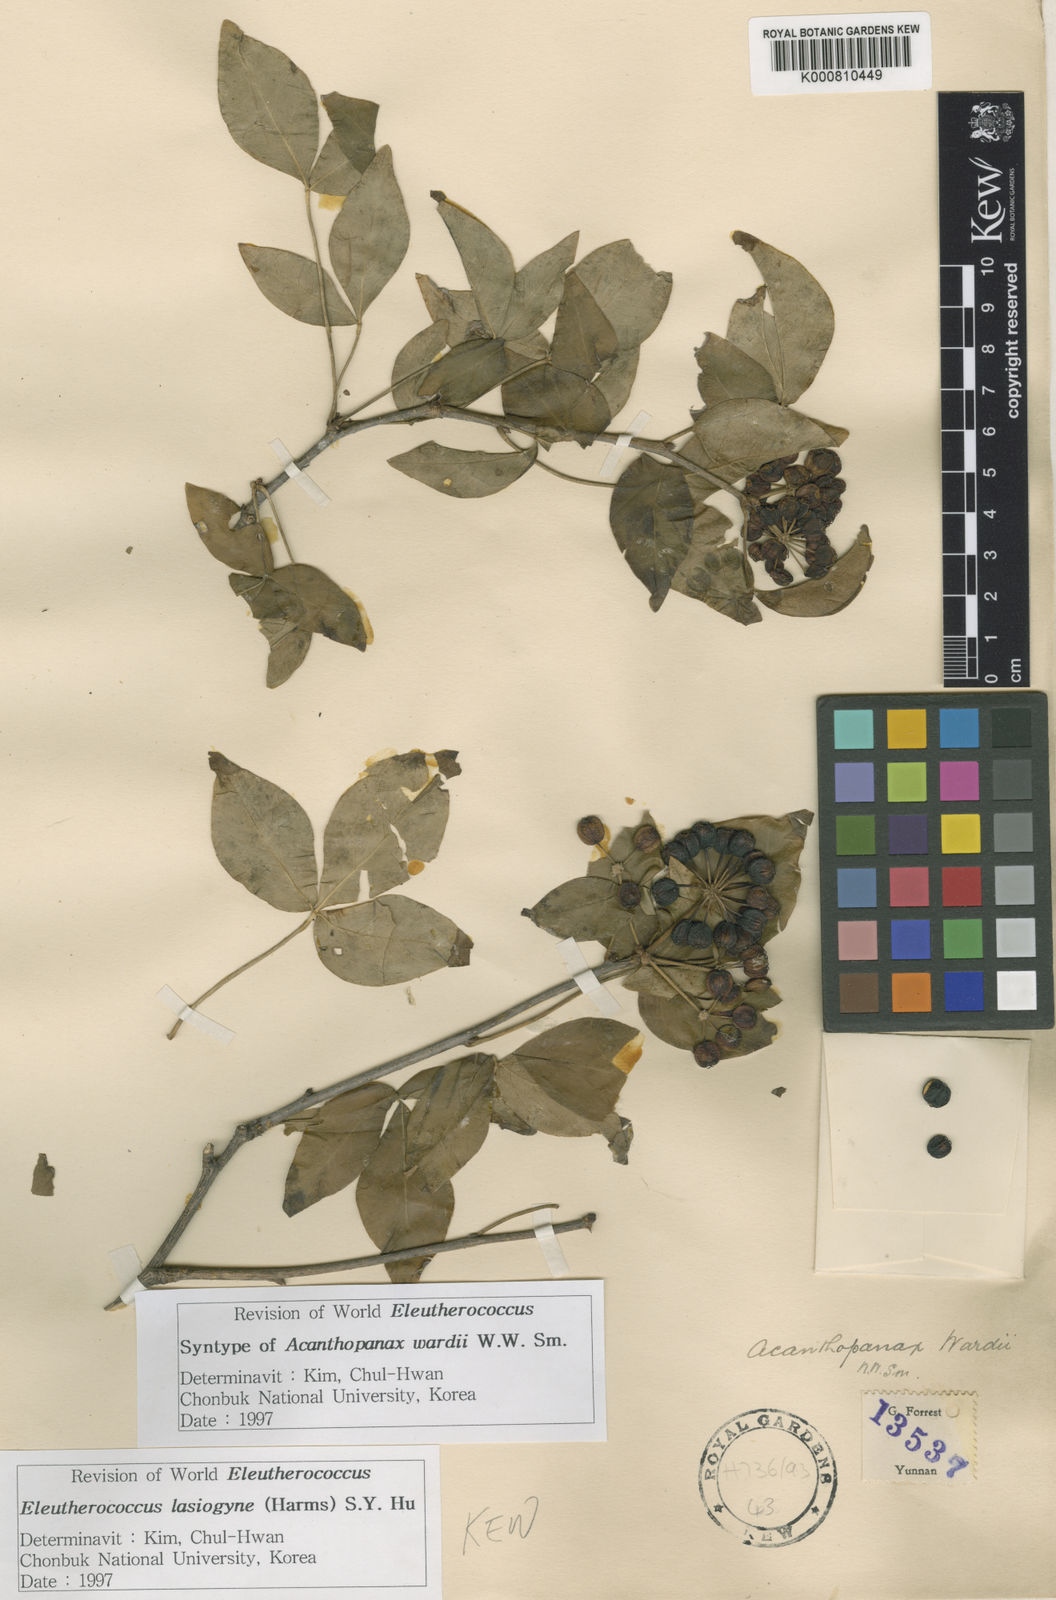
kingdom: Plantae
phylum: Tracheophyta
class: Magnoliopsida
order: Apiales
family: Araliaceae
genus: Eleutherococcus
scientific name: Eleutherococcus wardii
